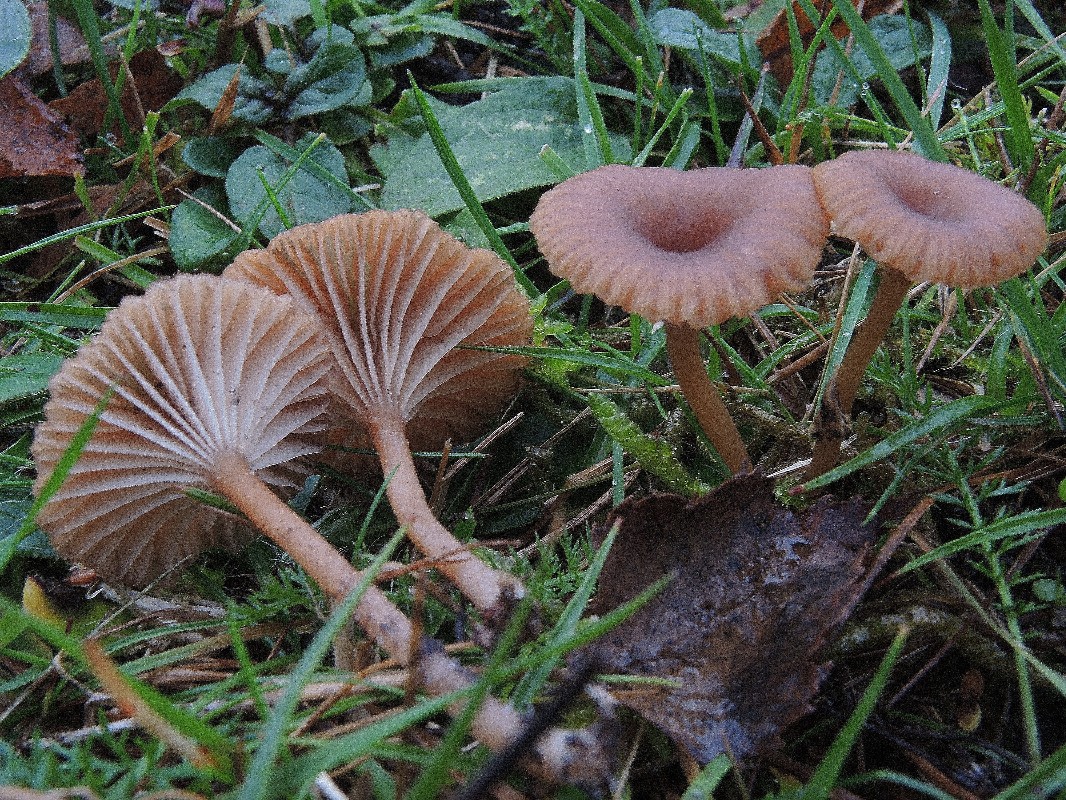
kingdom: Fungi
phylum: Basidiomycota
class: Agaricomycetes
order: Agaricales
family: Tricholomataceae
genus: Omphalina
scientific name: Omphalina pyxidata
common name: rødbrun navlehat
